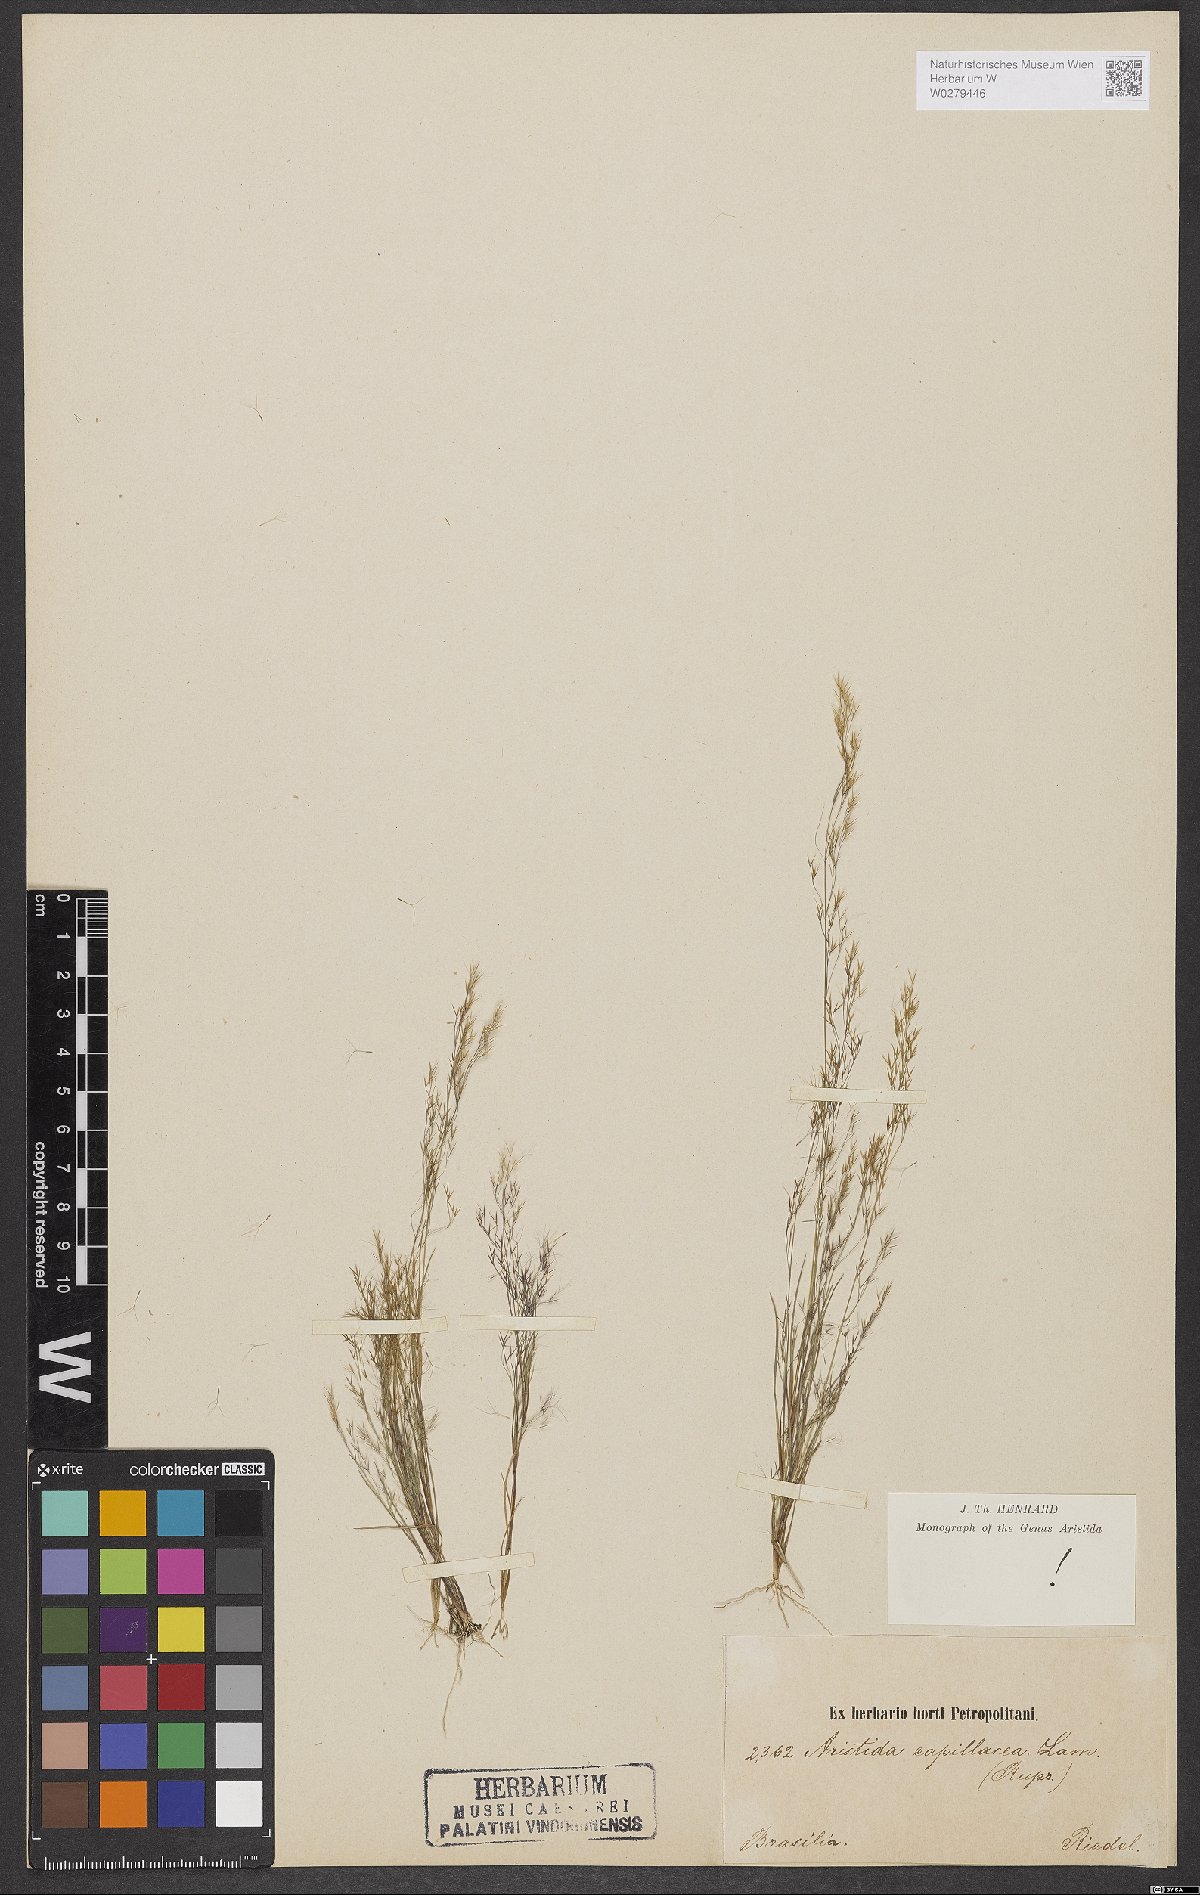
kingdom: Plantae
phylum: Tracheophyta
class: Liliopsida
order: Poales
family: Poaceae
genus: Aristida
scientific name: Aristida capillacea
